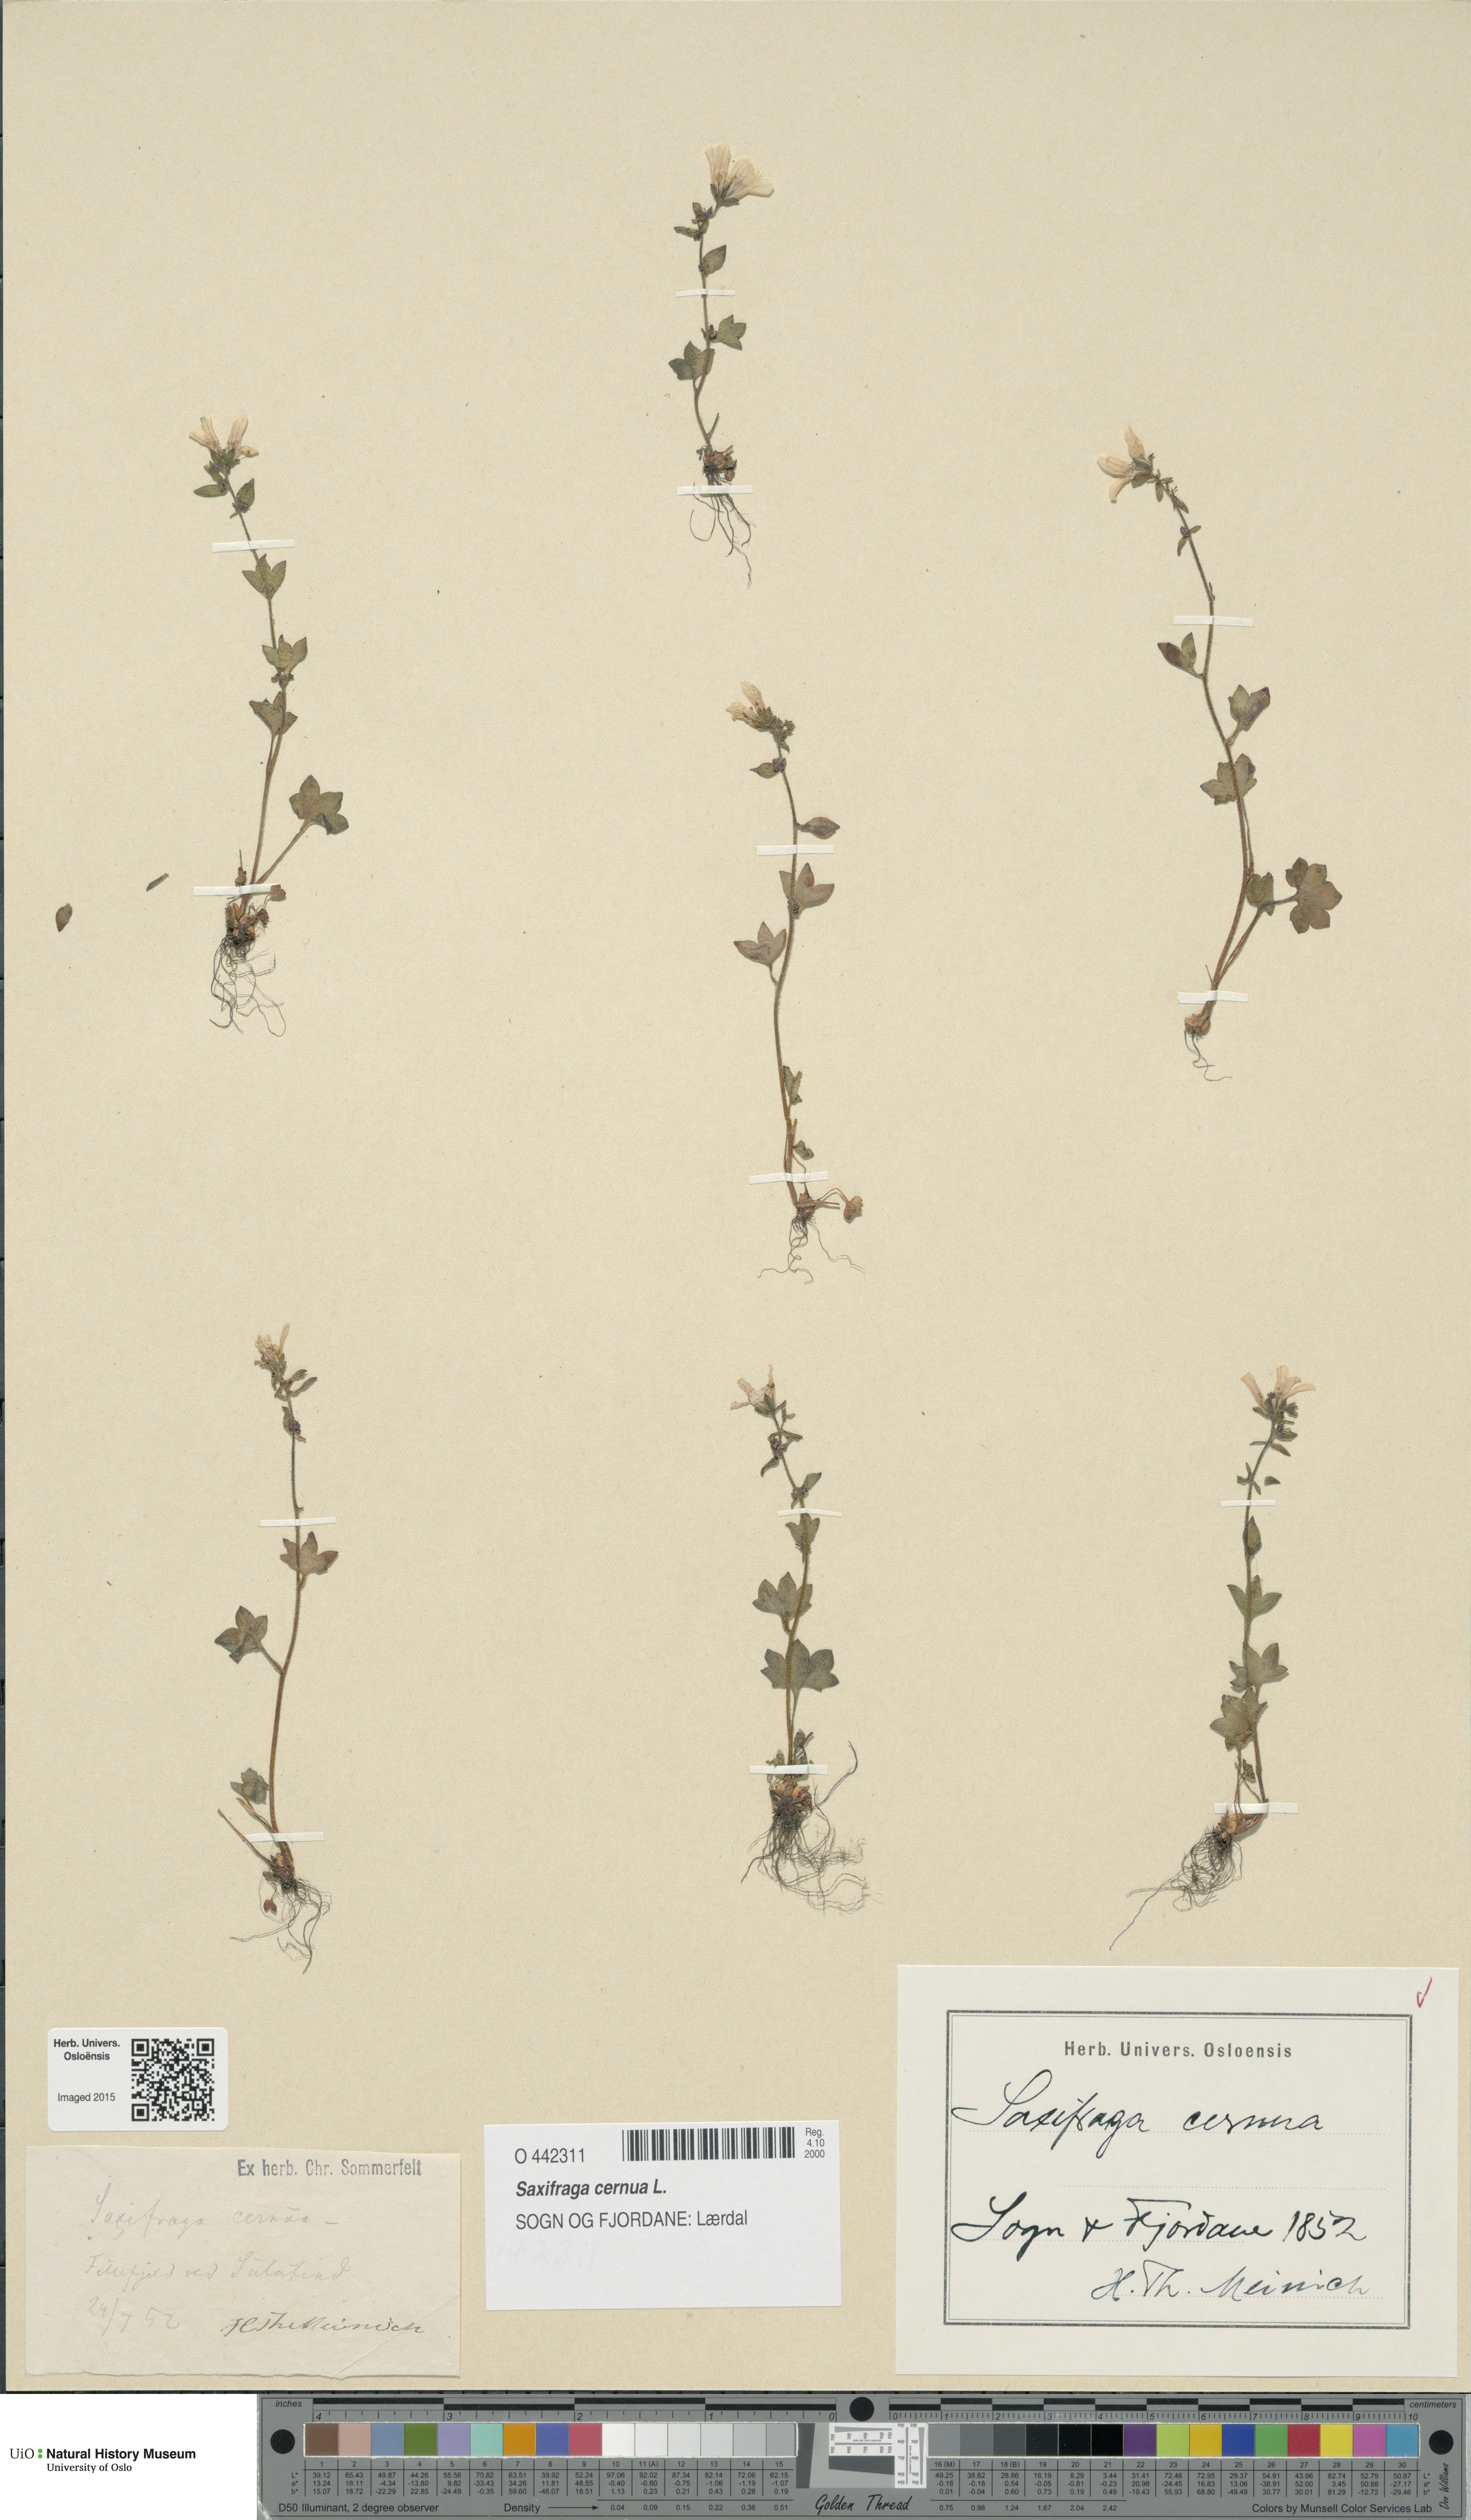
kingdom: Plantae
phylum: Tracheophyta
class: Magnoliopsida
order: Saxifragales
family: Saxifragaceae
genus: Saxifraga
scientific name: Saxifraga cernua
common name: Drooping saxifrage
